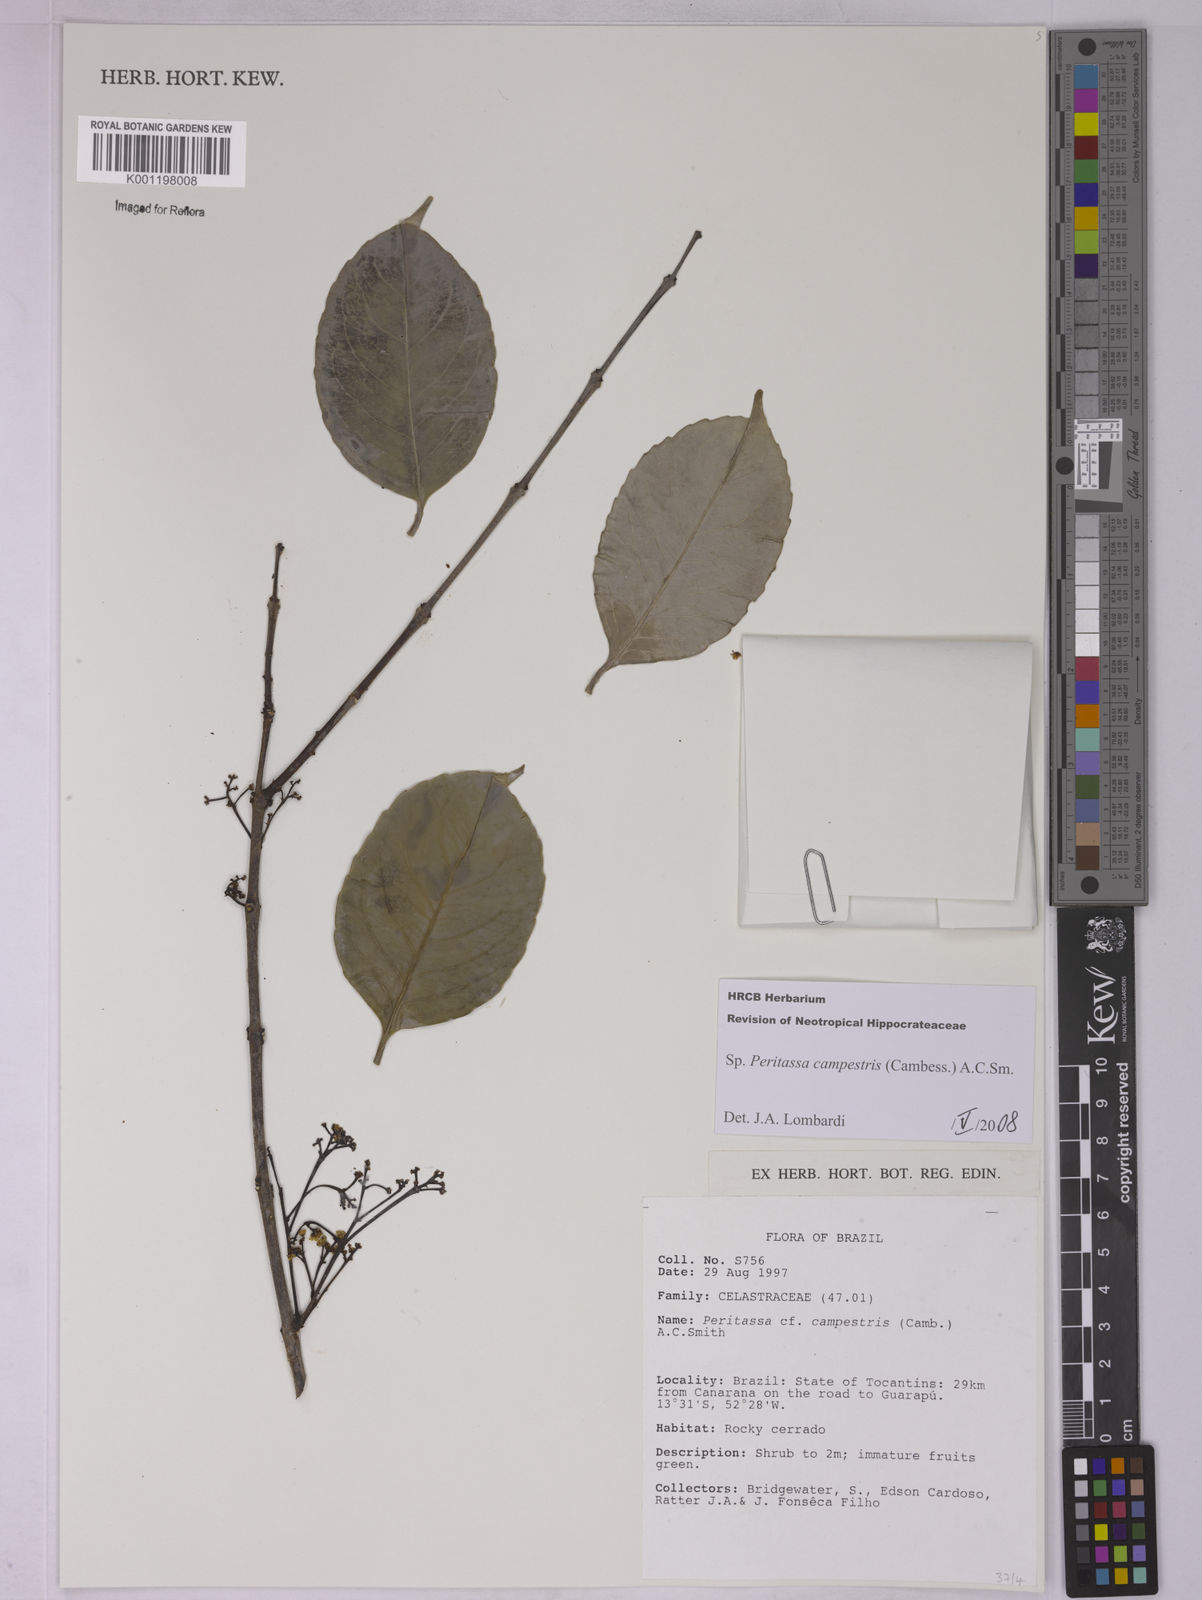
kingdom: Plantae
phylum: Tracheophyta
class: Magnoliopsida
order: Celastrales
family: Celastraceae
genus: Peritassa
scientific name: Peritassa campestris
